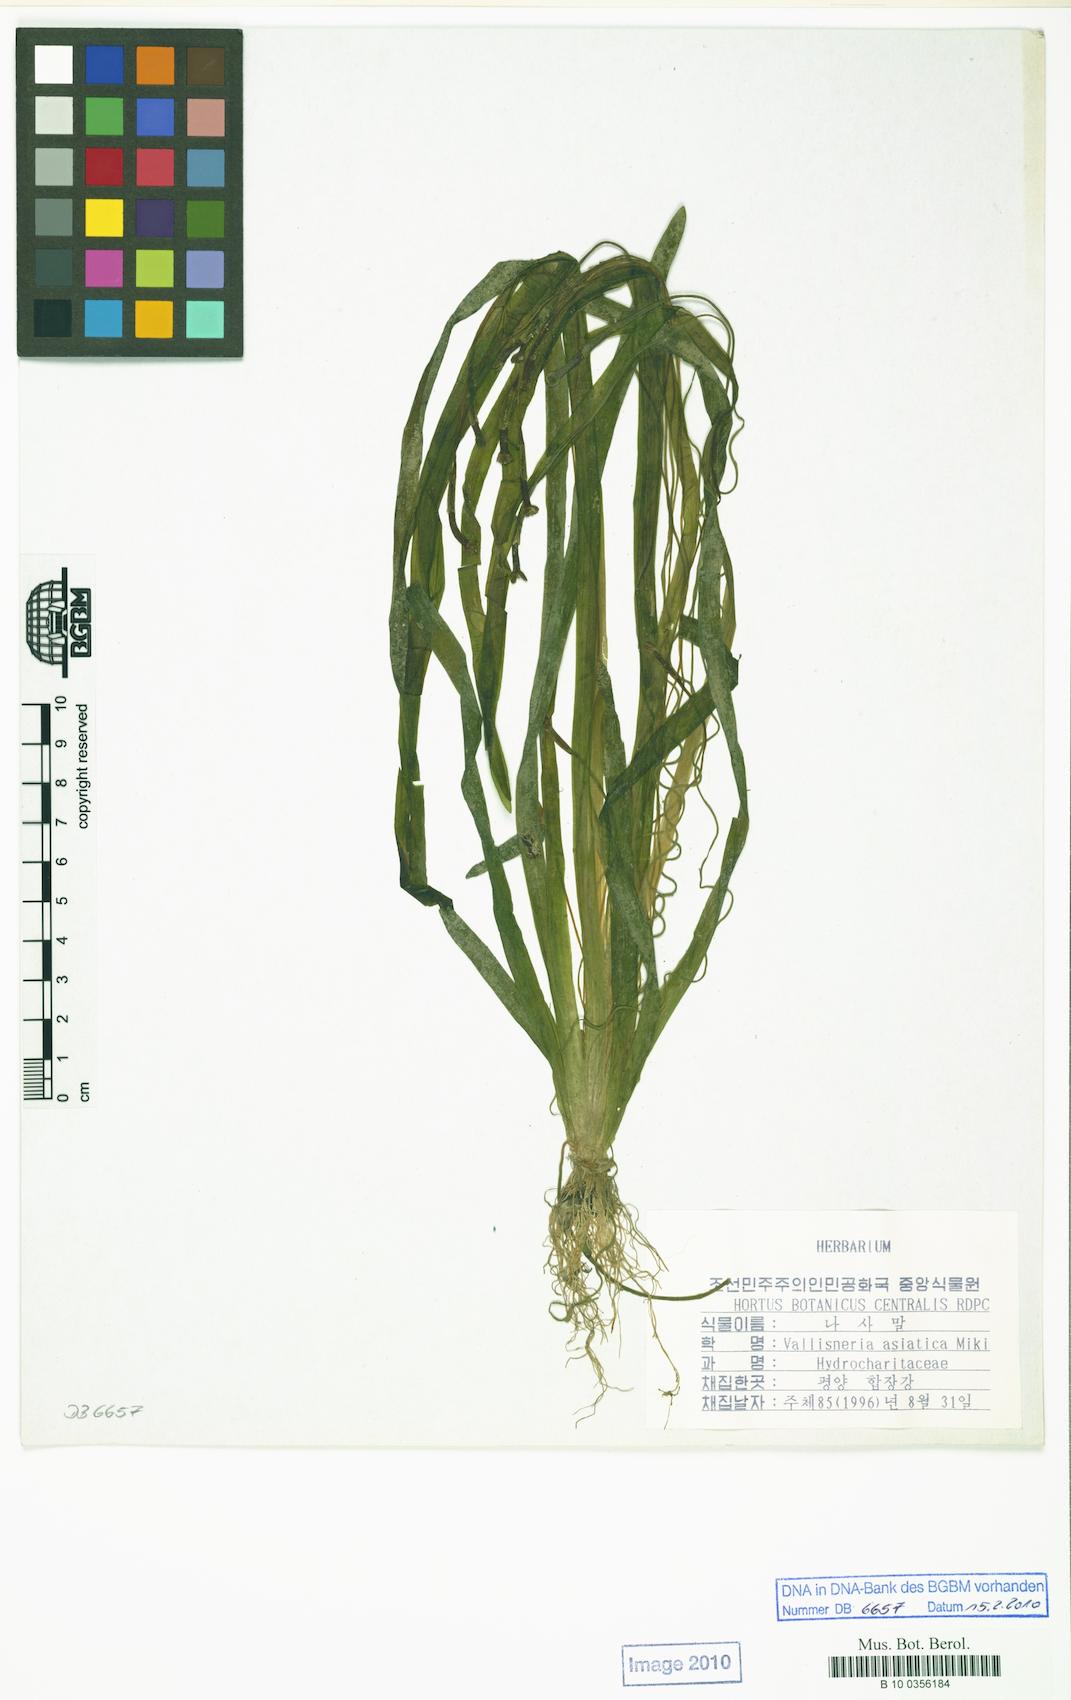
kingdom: Plantae
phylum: Tracheophyta
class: Liliopsida
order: Alismatales
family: Hydrocharitaceae
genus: Vallisneria
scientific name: Vallisneria natans
